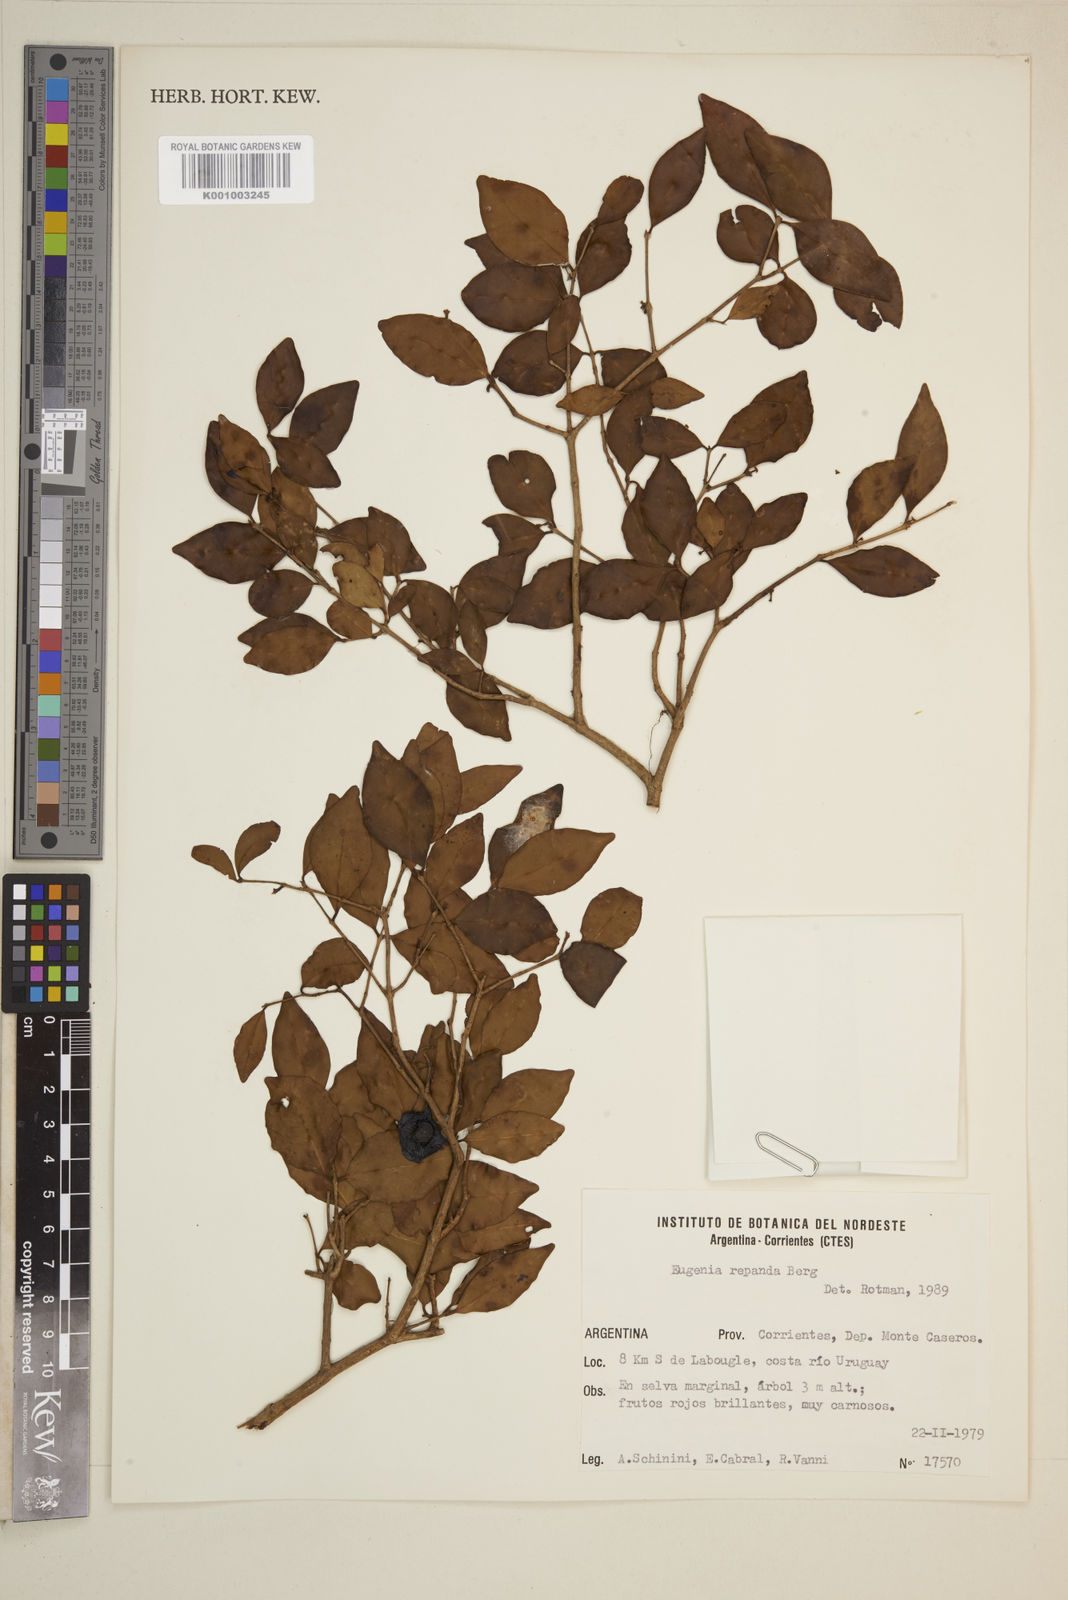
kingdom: Plantae
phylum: Tracheophyta
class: Magnoliopsida
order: Myrtales
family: Myrtaceae
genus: Eugenia
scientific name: Eugenia repanda
